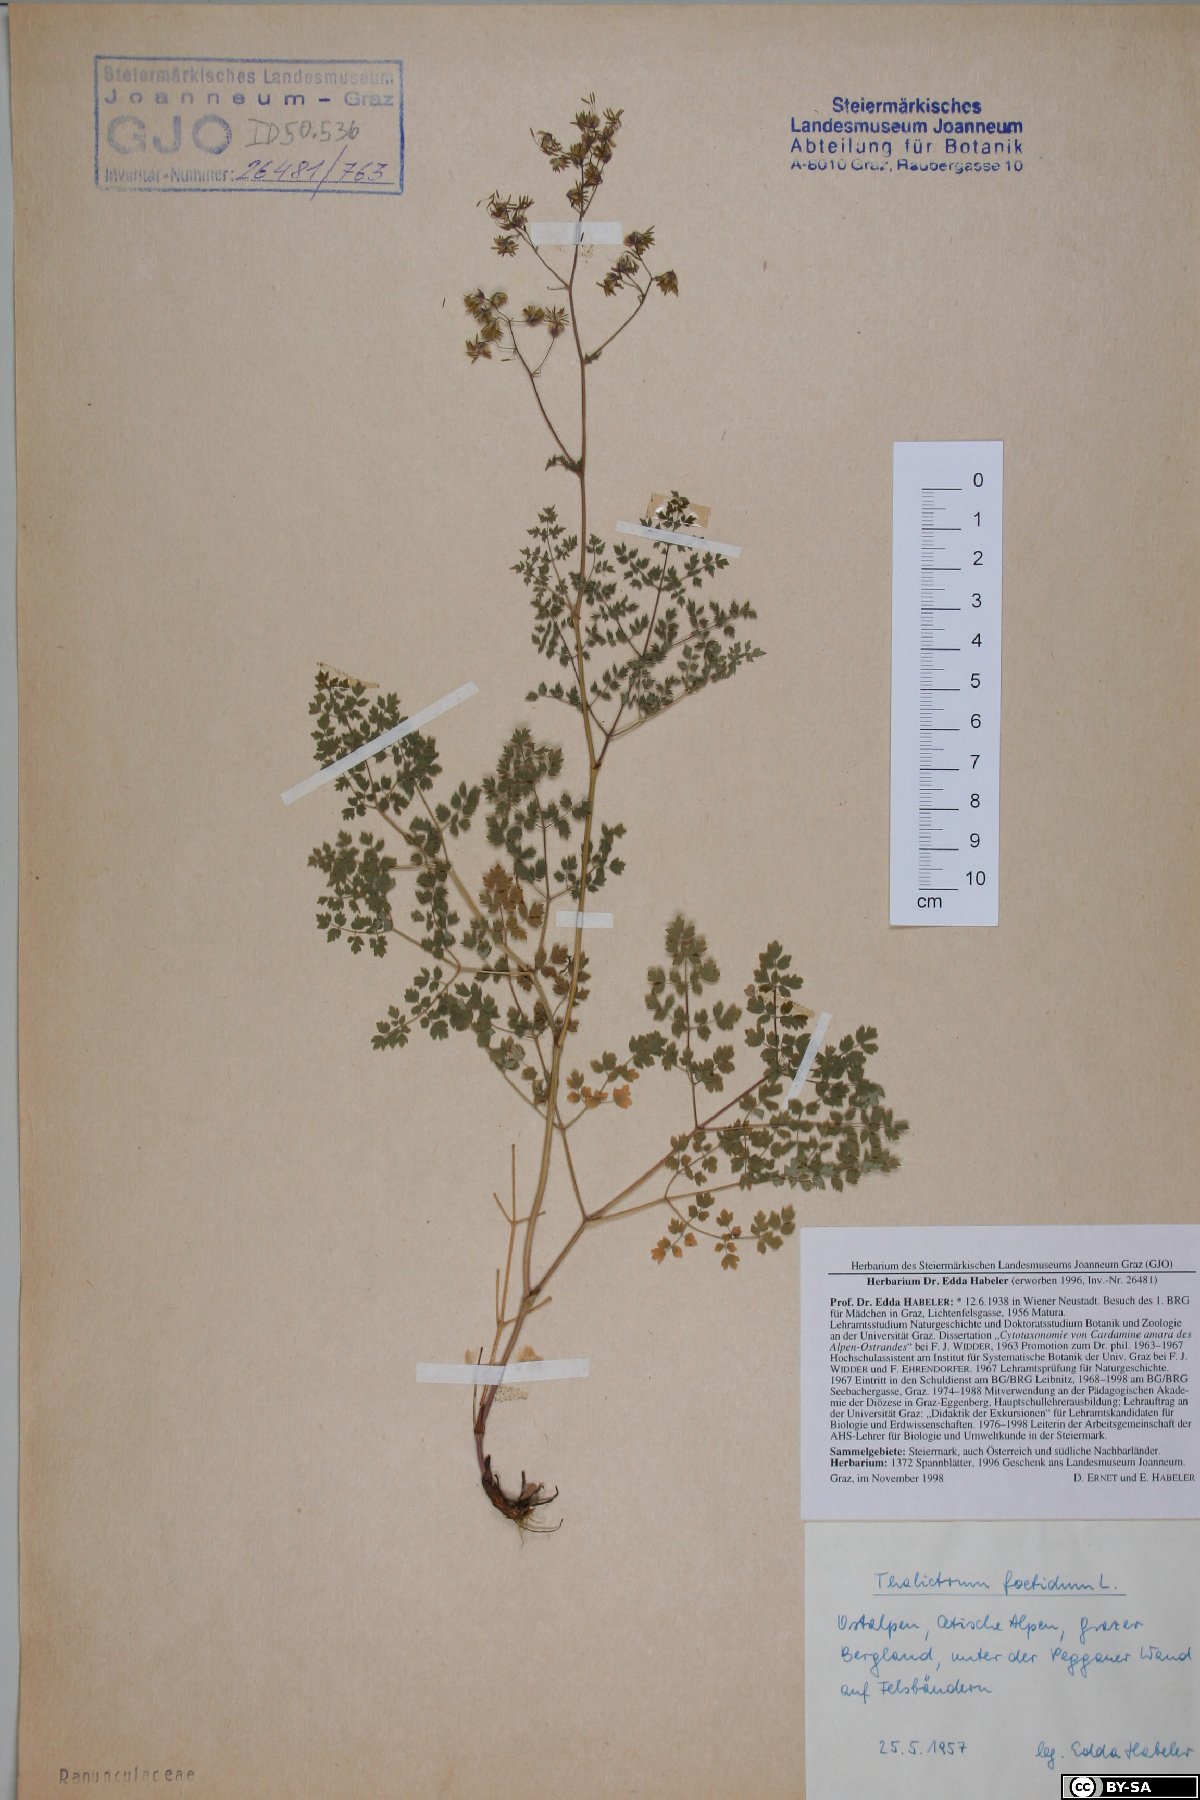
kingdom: Plantae
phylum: Tracheophyta
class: Magnoliopsida
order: Ranunculales
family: Ranunculaceae
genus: Thalictrum
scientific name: Thalictrum foetidum
